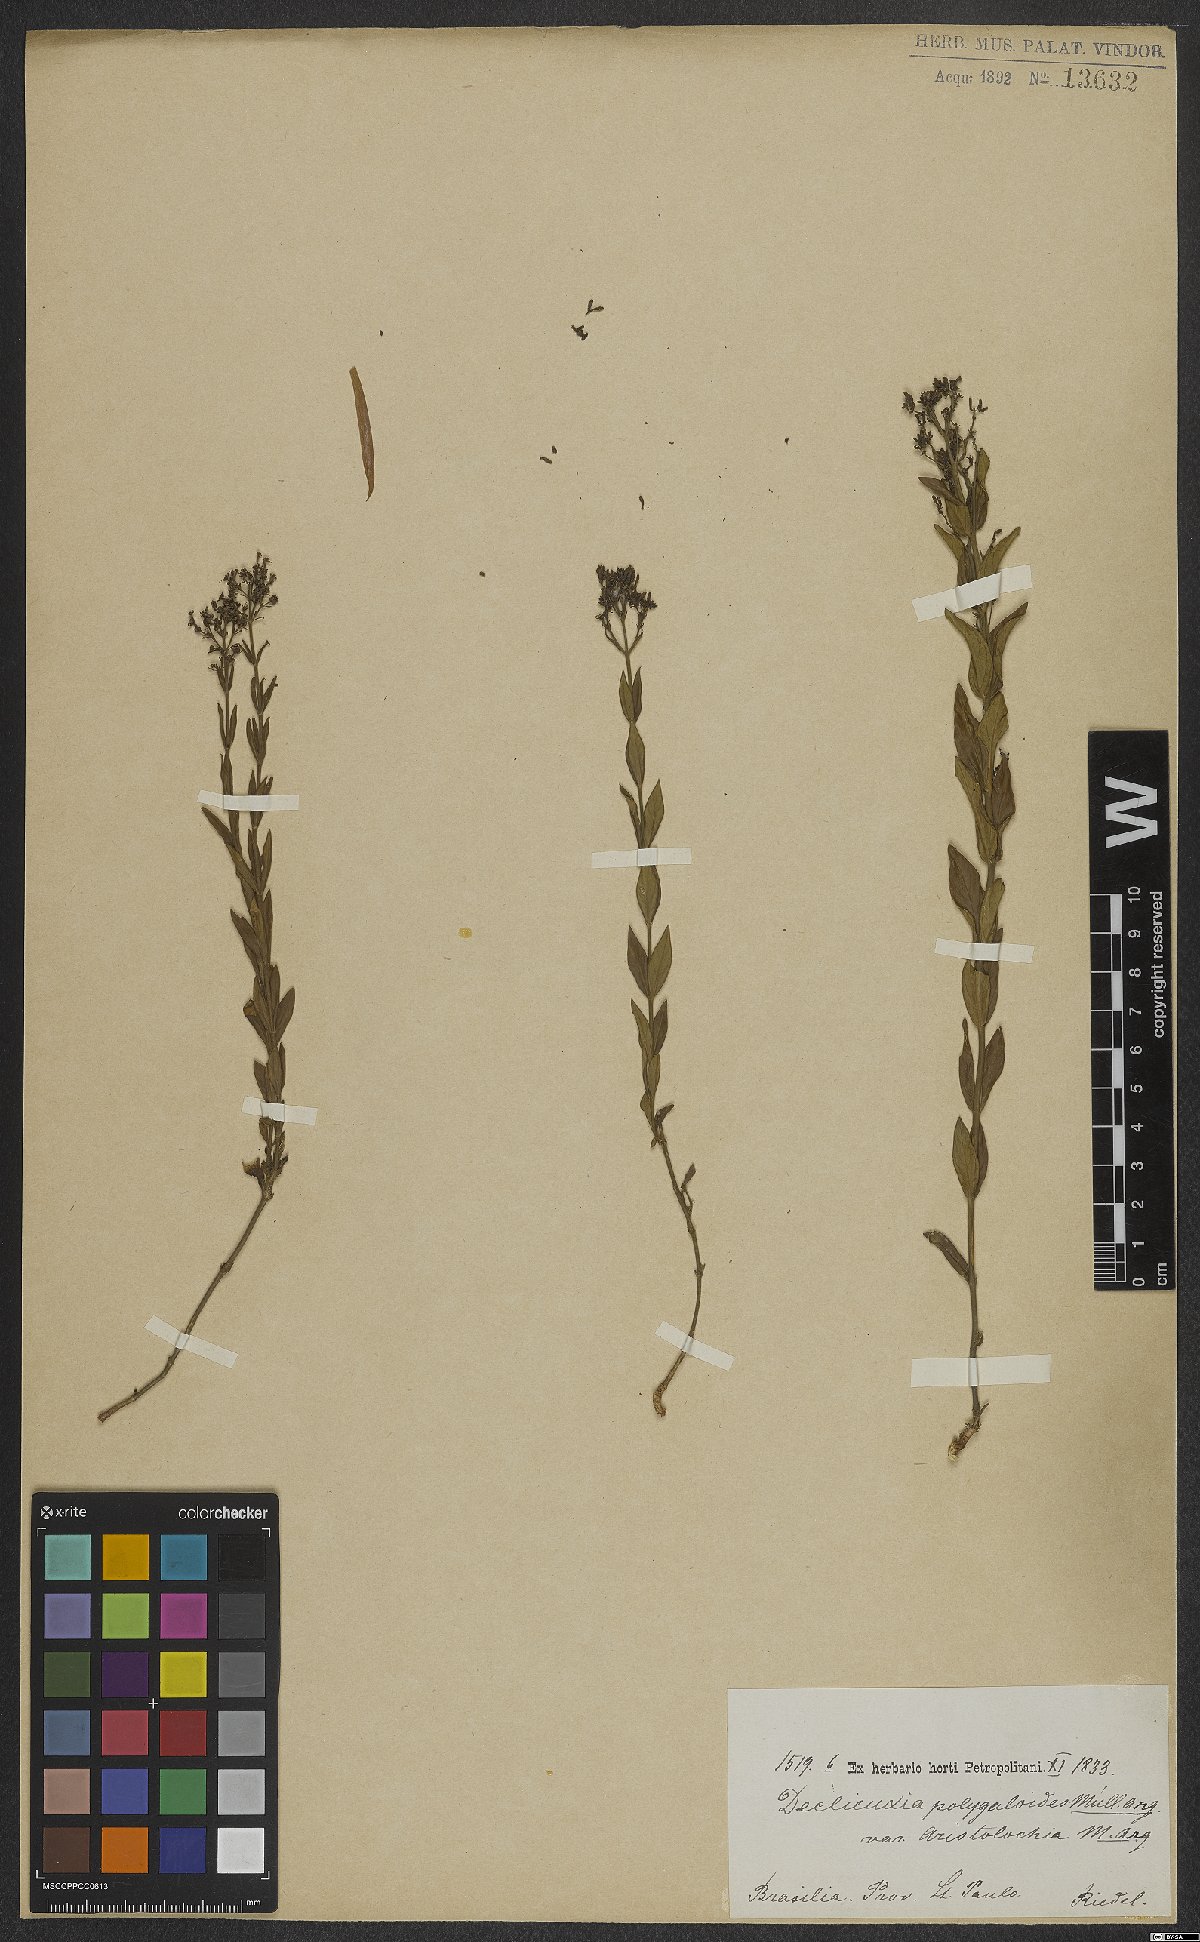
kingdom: Plantae
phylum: Tracheophyta
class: Magnoliopsida
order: Gentianales
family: Rubiaceae
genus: Declieuxia
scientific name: Declieuxia cordigera
